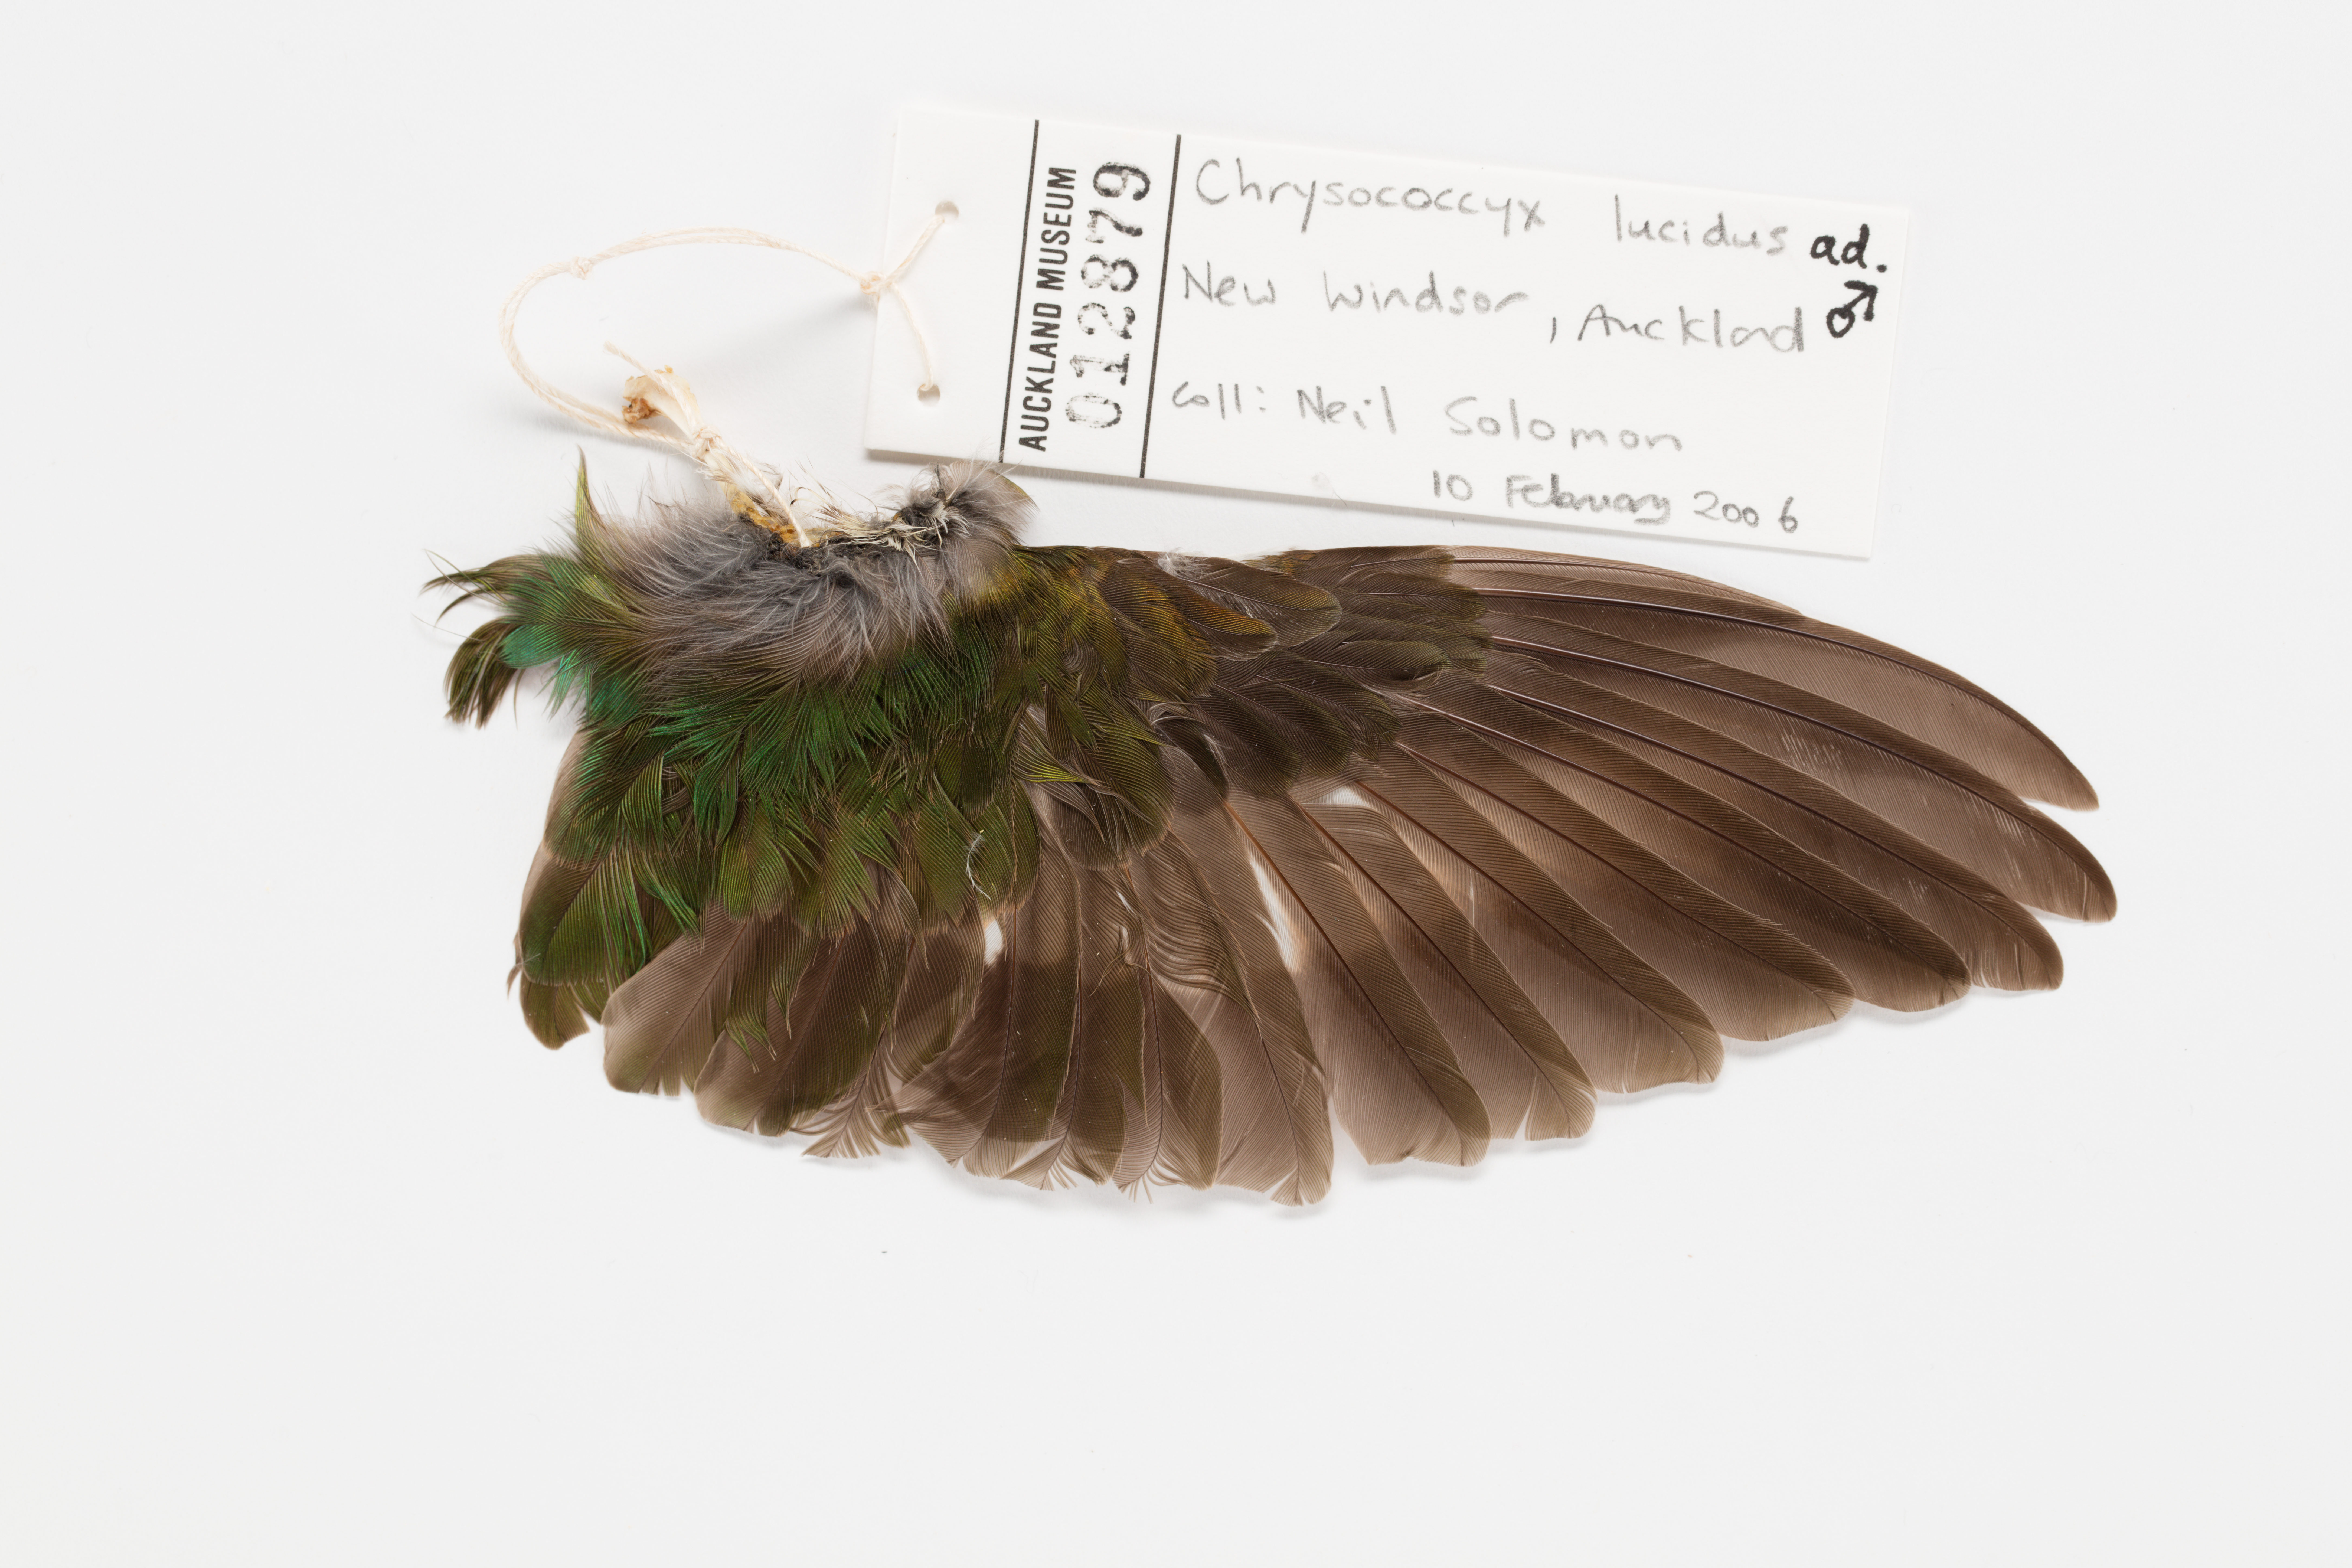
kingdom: Animalia
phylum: Chordata
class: Aves
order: Cuculiformes
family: Cuculidae
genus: Chrysococcyx
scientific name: Chrysococcyx lucidus
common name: Shining bronze cuckoo
